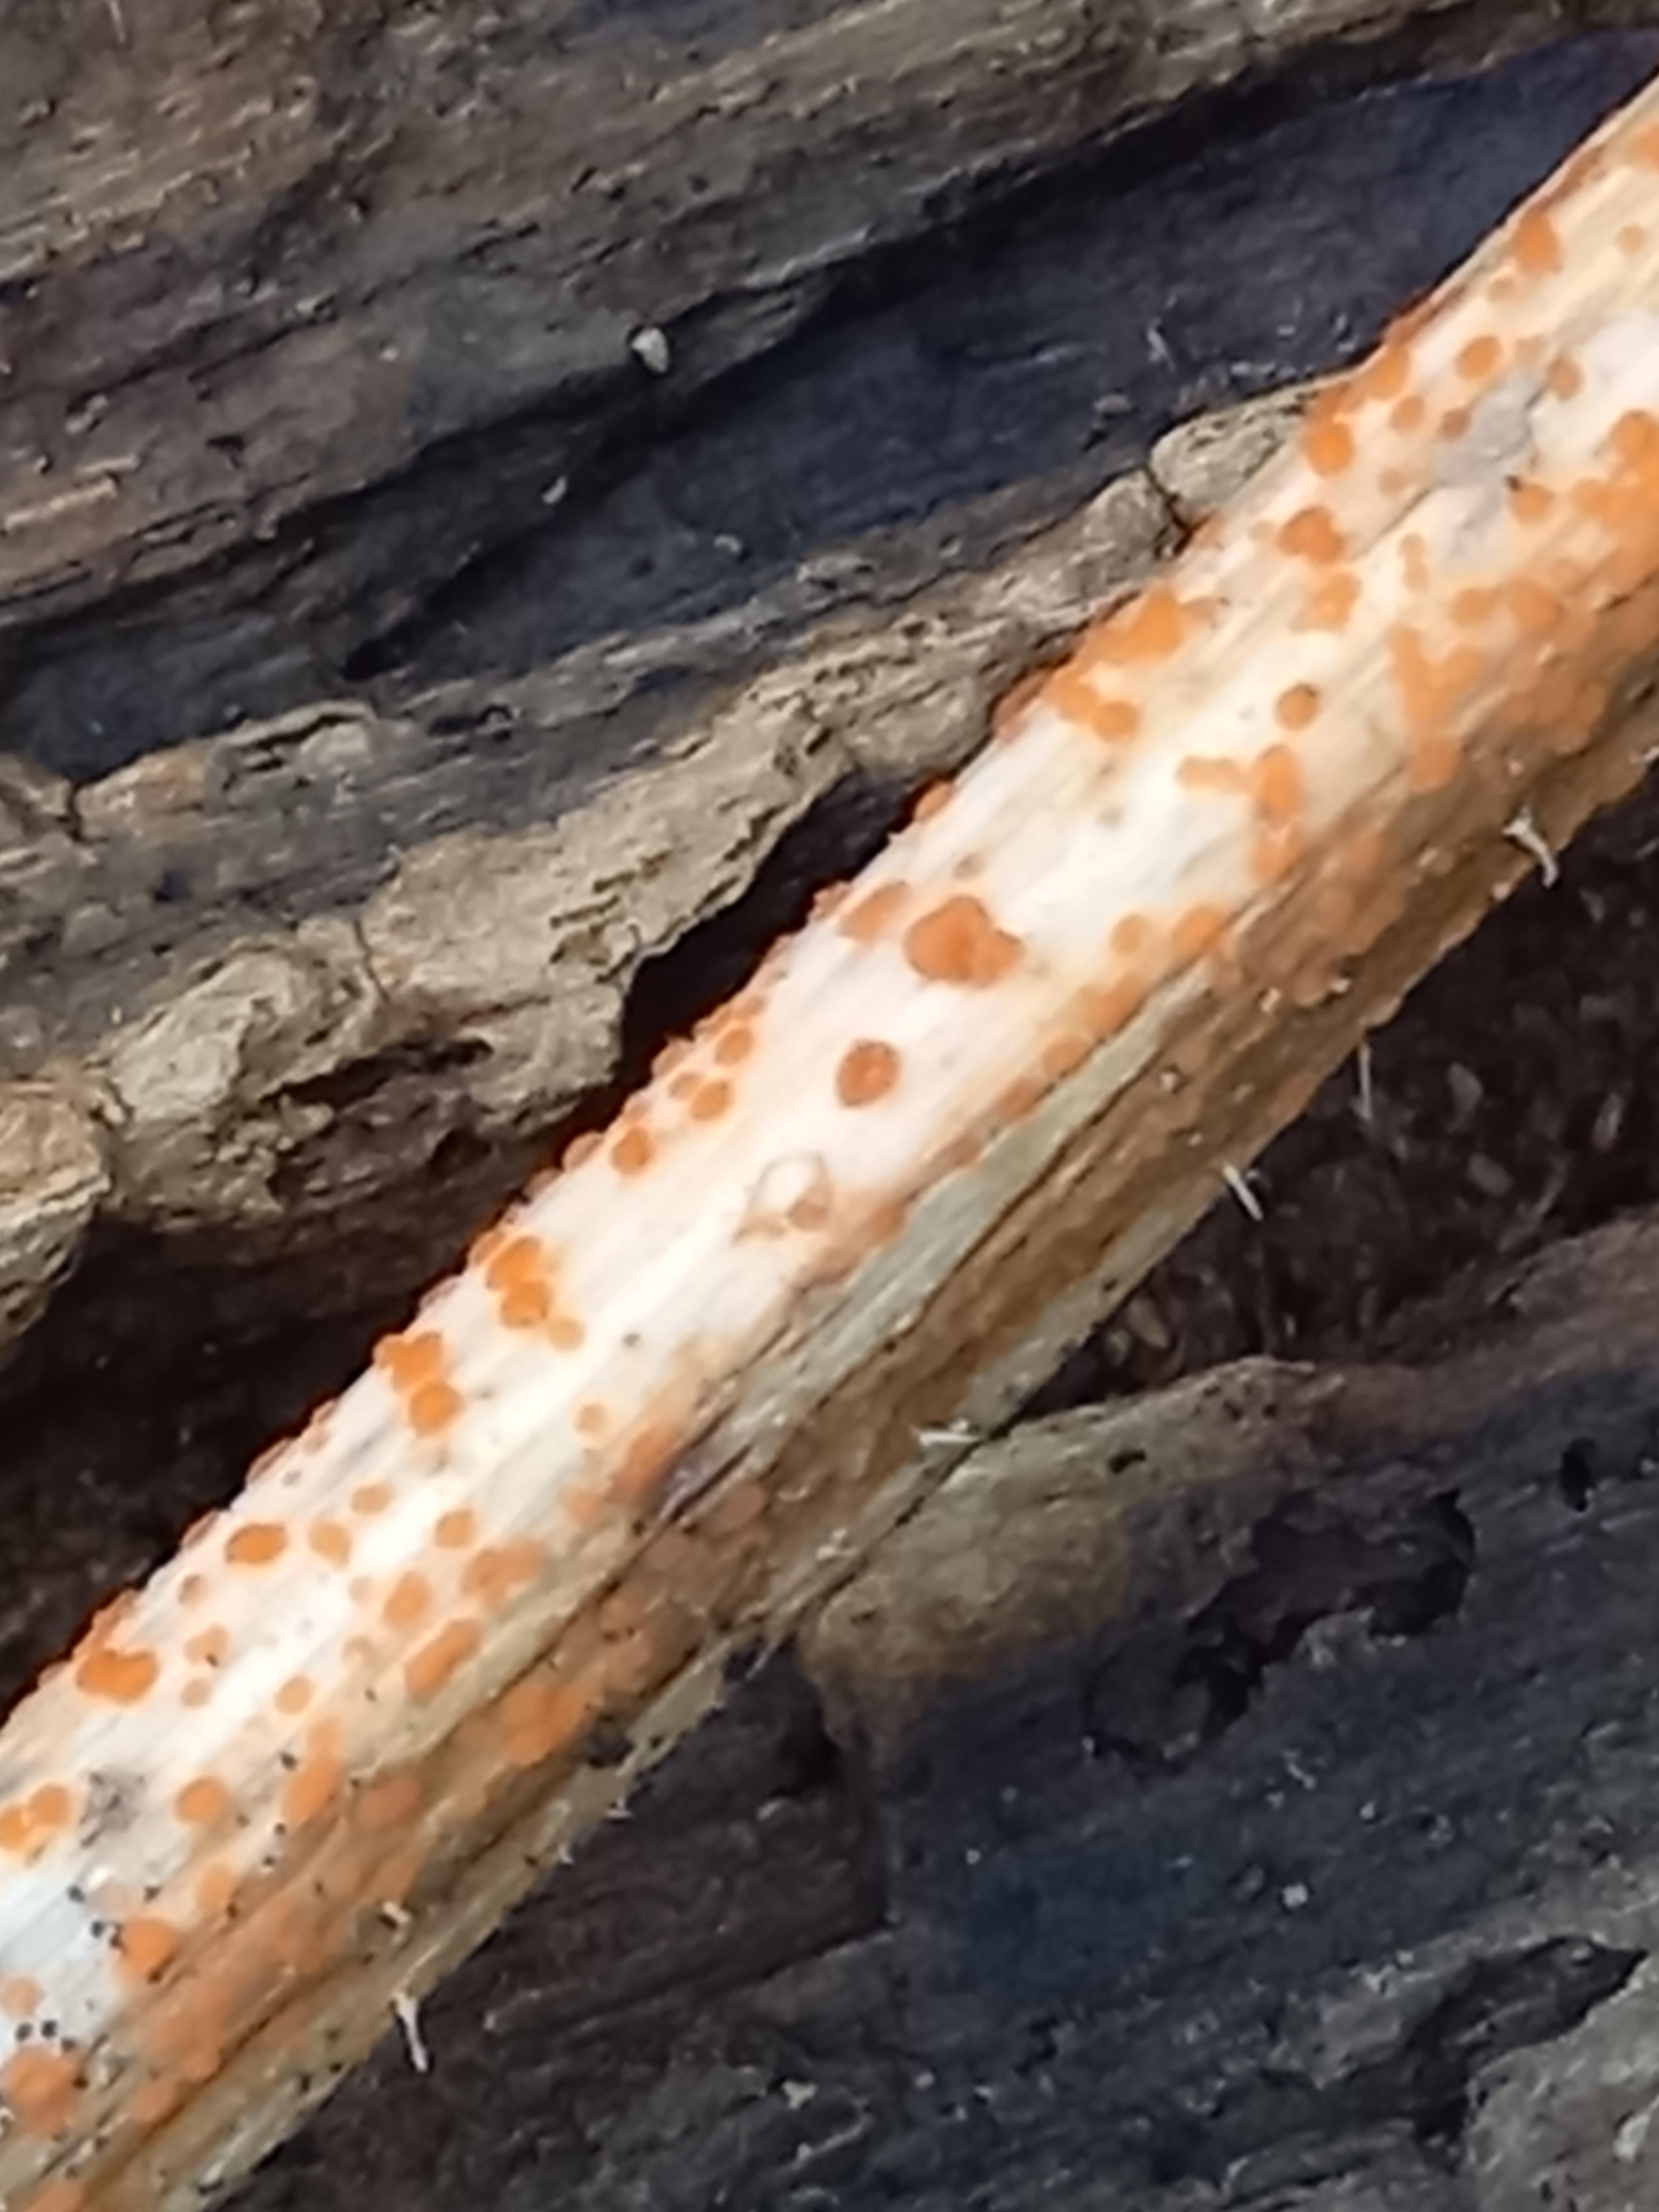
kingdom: Fungi
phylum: Ascomycota
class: Leotiomycetes
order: Helotiales
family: Calloriaceae
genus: Calloria
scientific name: Calloria urticae
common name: nælde-orangeskive
